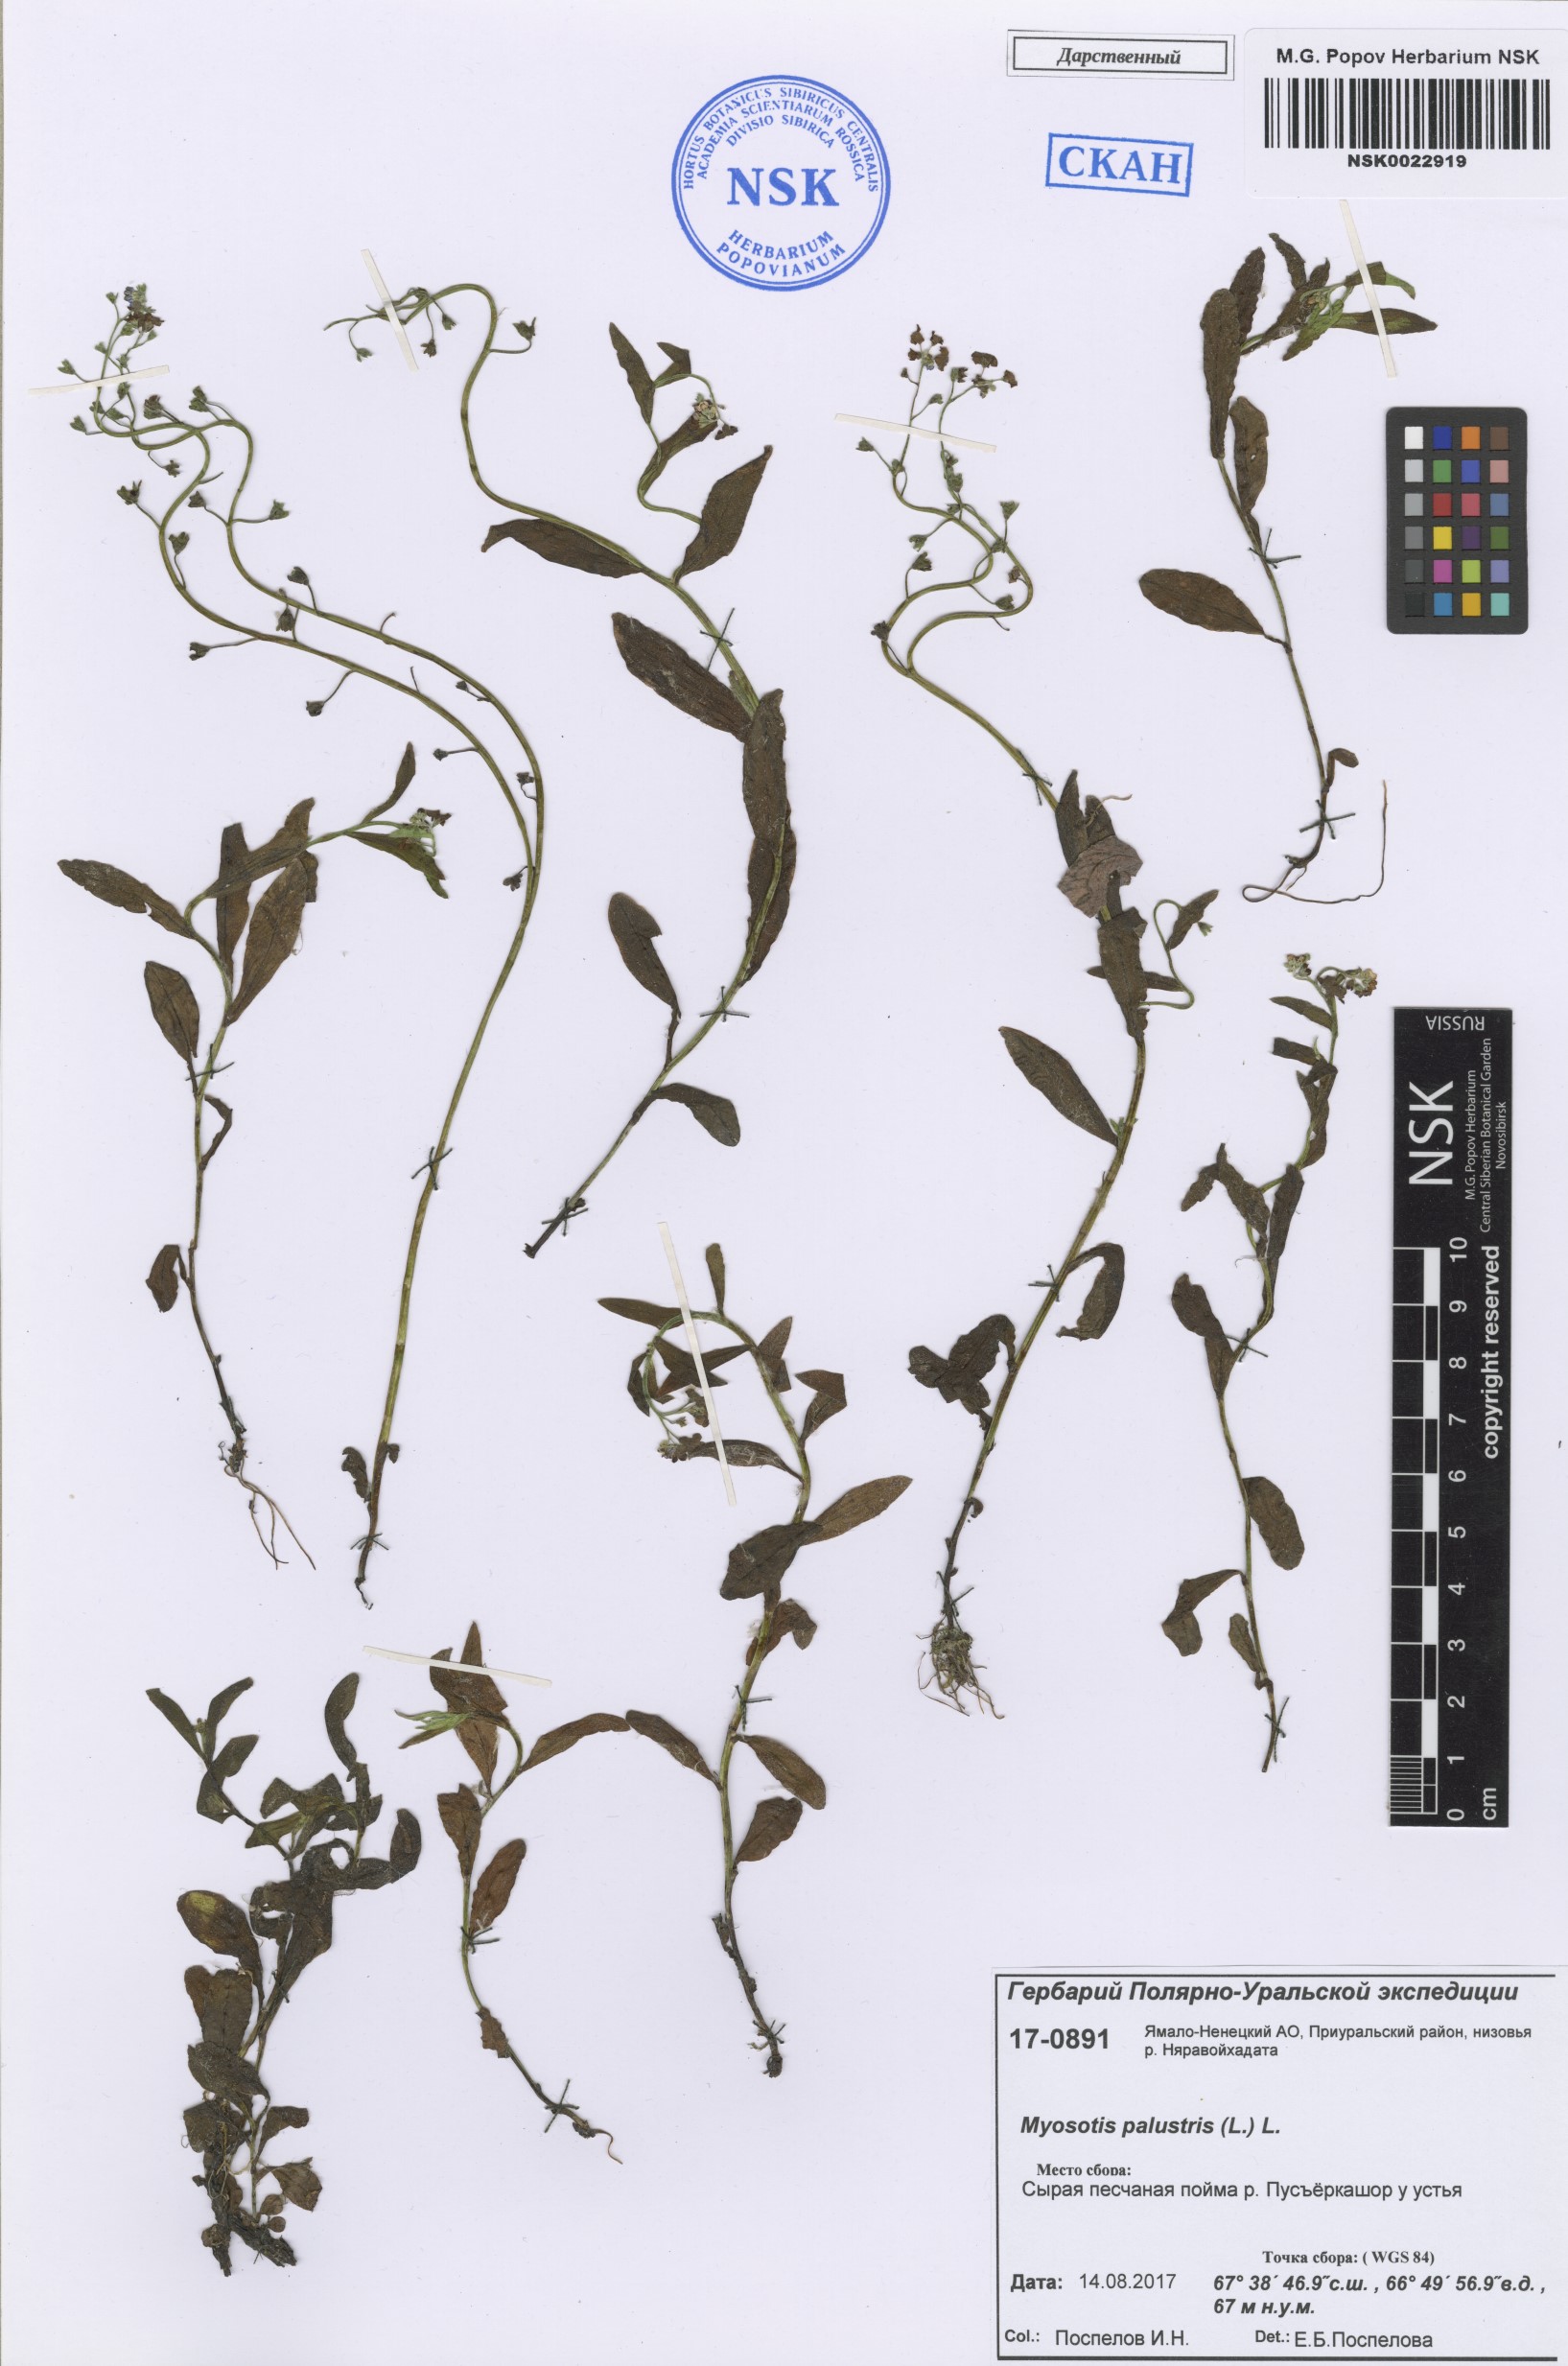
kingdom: Plantae
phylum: Tracheophyta
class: Magnoliopsida
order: Boraginales
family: Boraginaceae
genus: Myosotis
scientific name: Myosotis scorpioides
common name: Water forget-me-not
